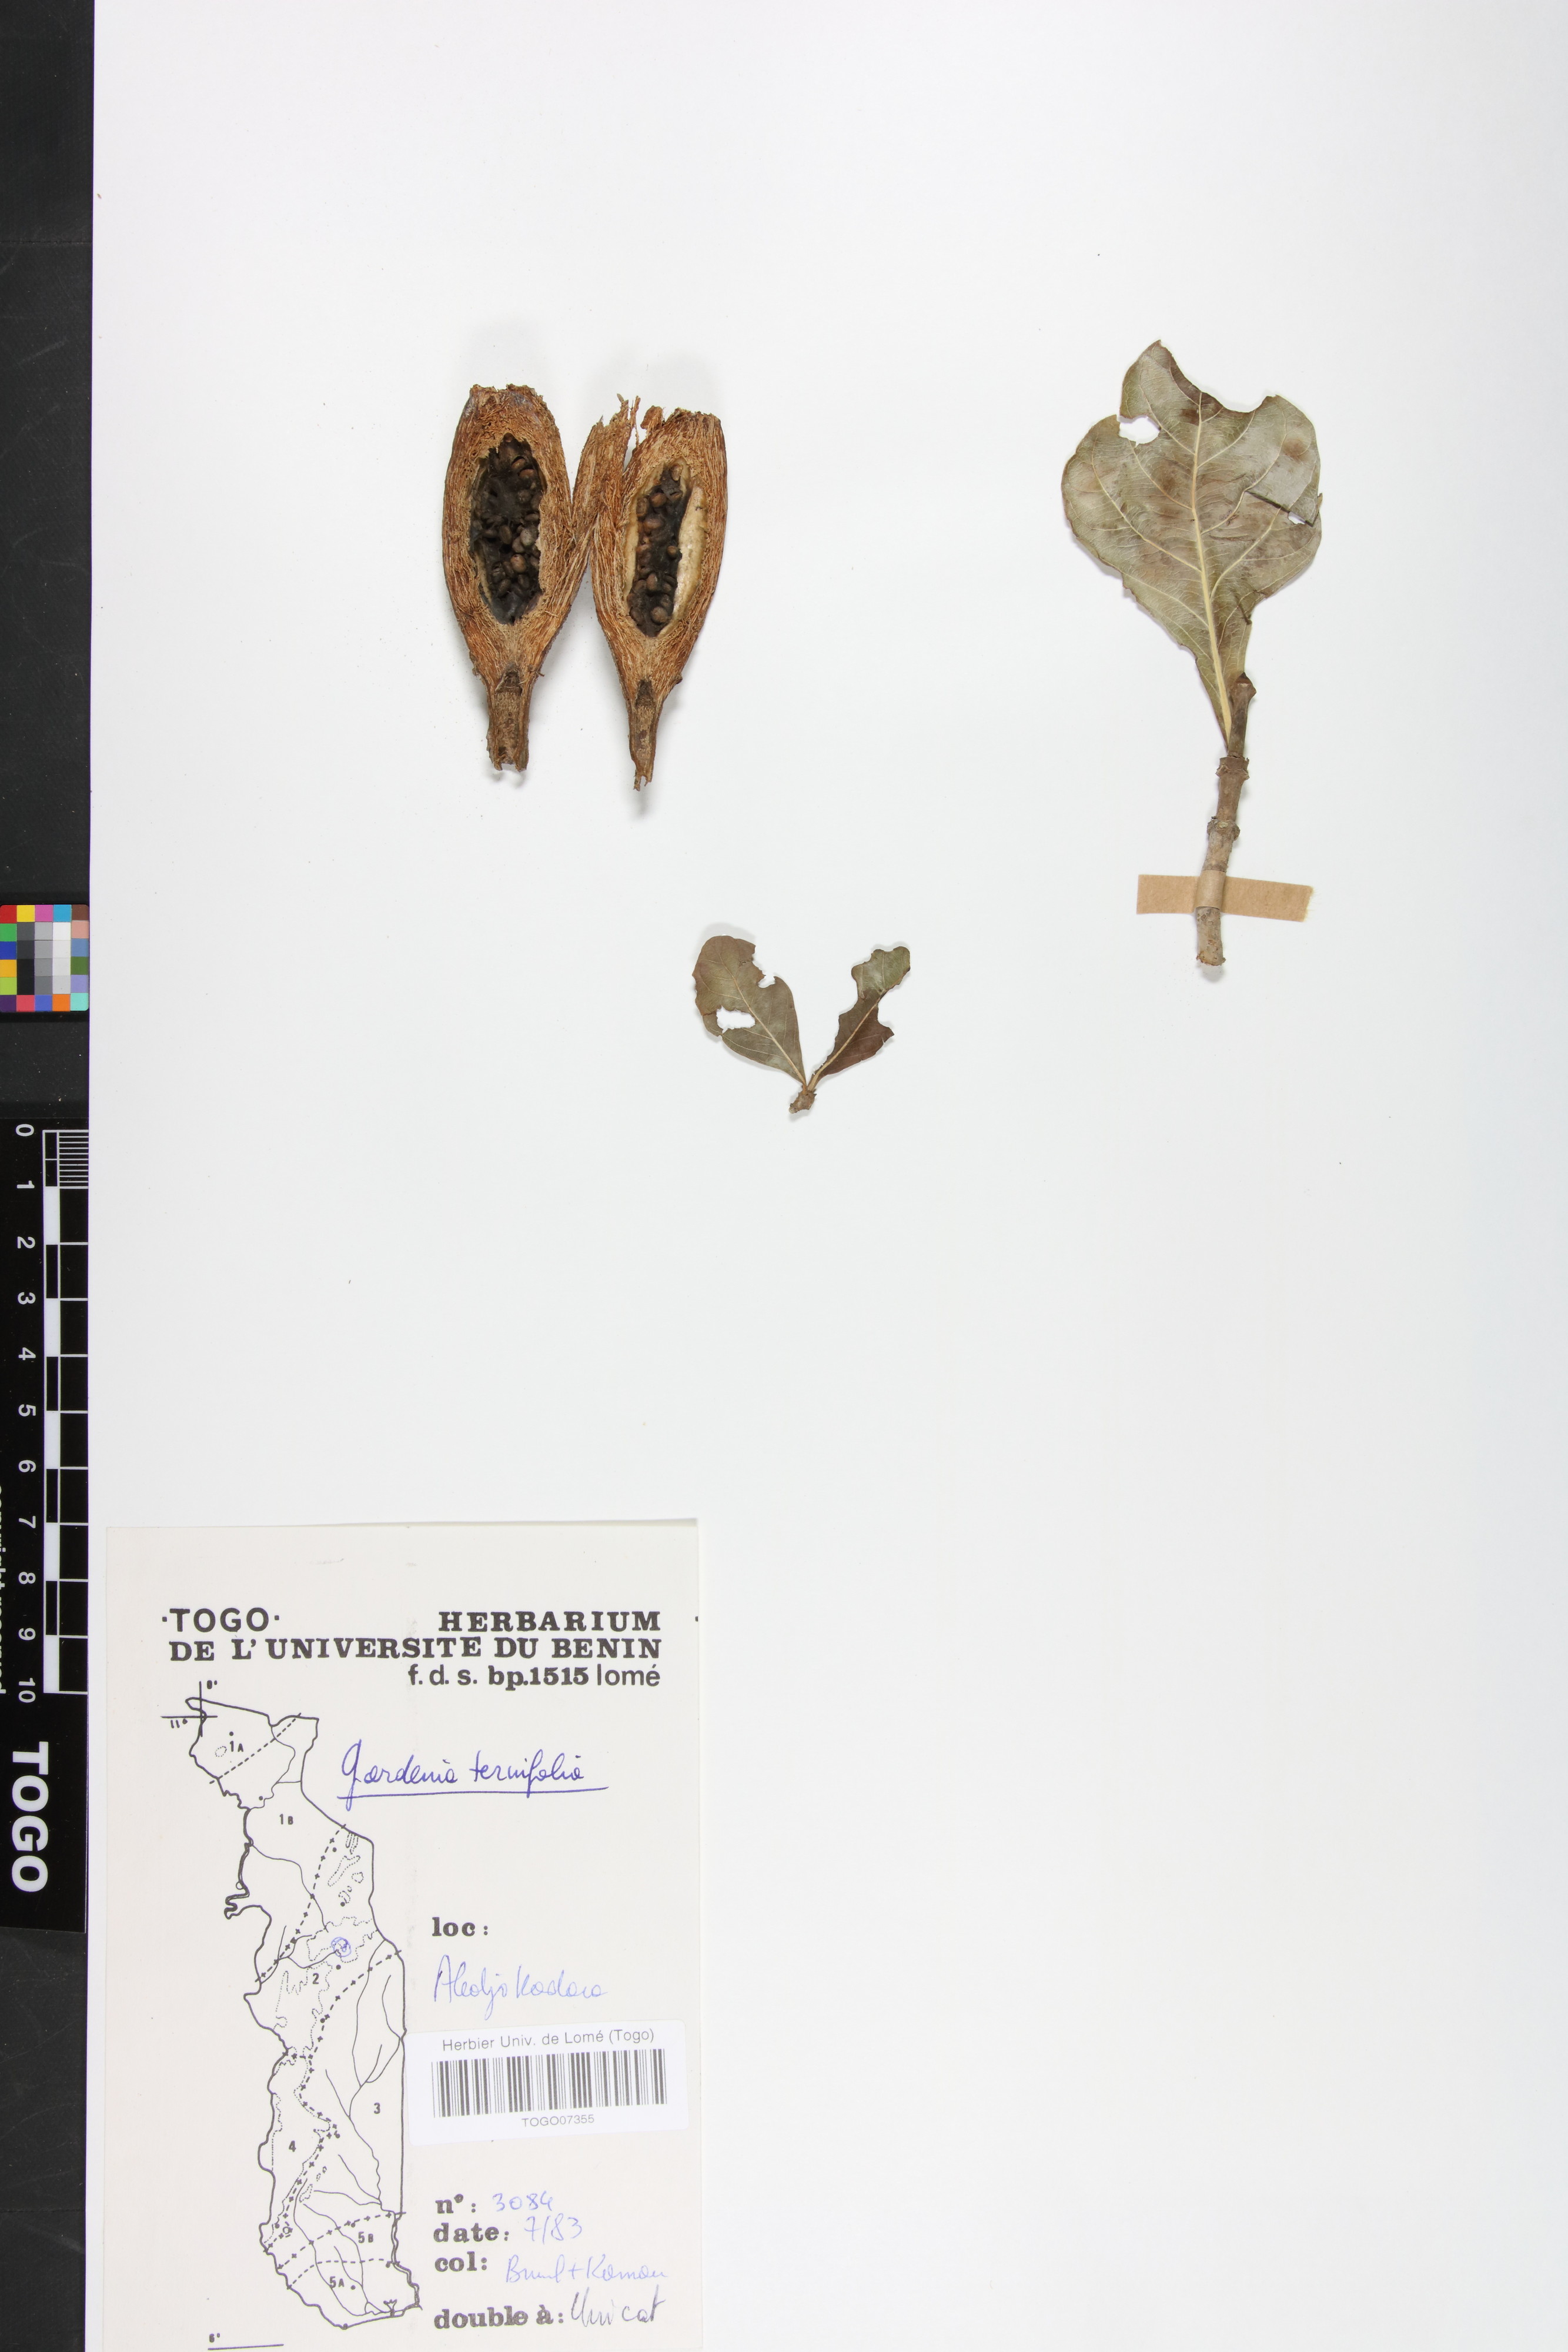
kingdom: Plantae
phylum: Tracheophyta
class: Magnoliopsida
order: Gentianales
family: Rubiaceae
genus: Gardenia
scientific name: Gardenia ternifolia
